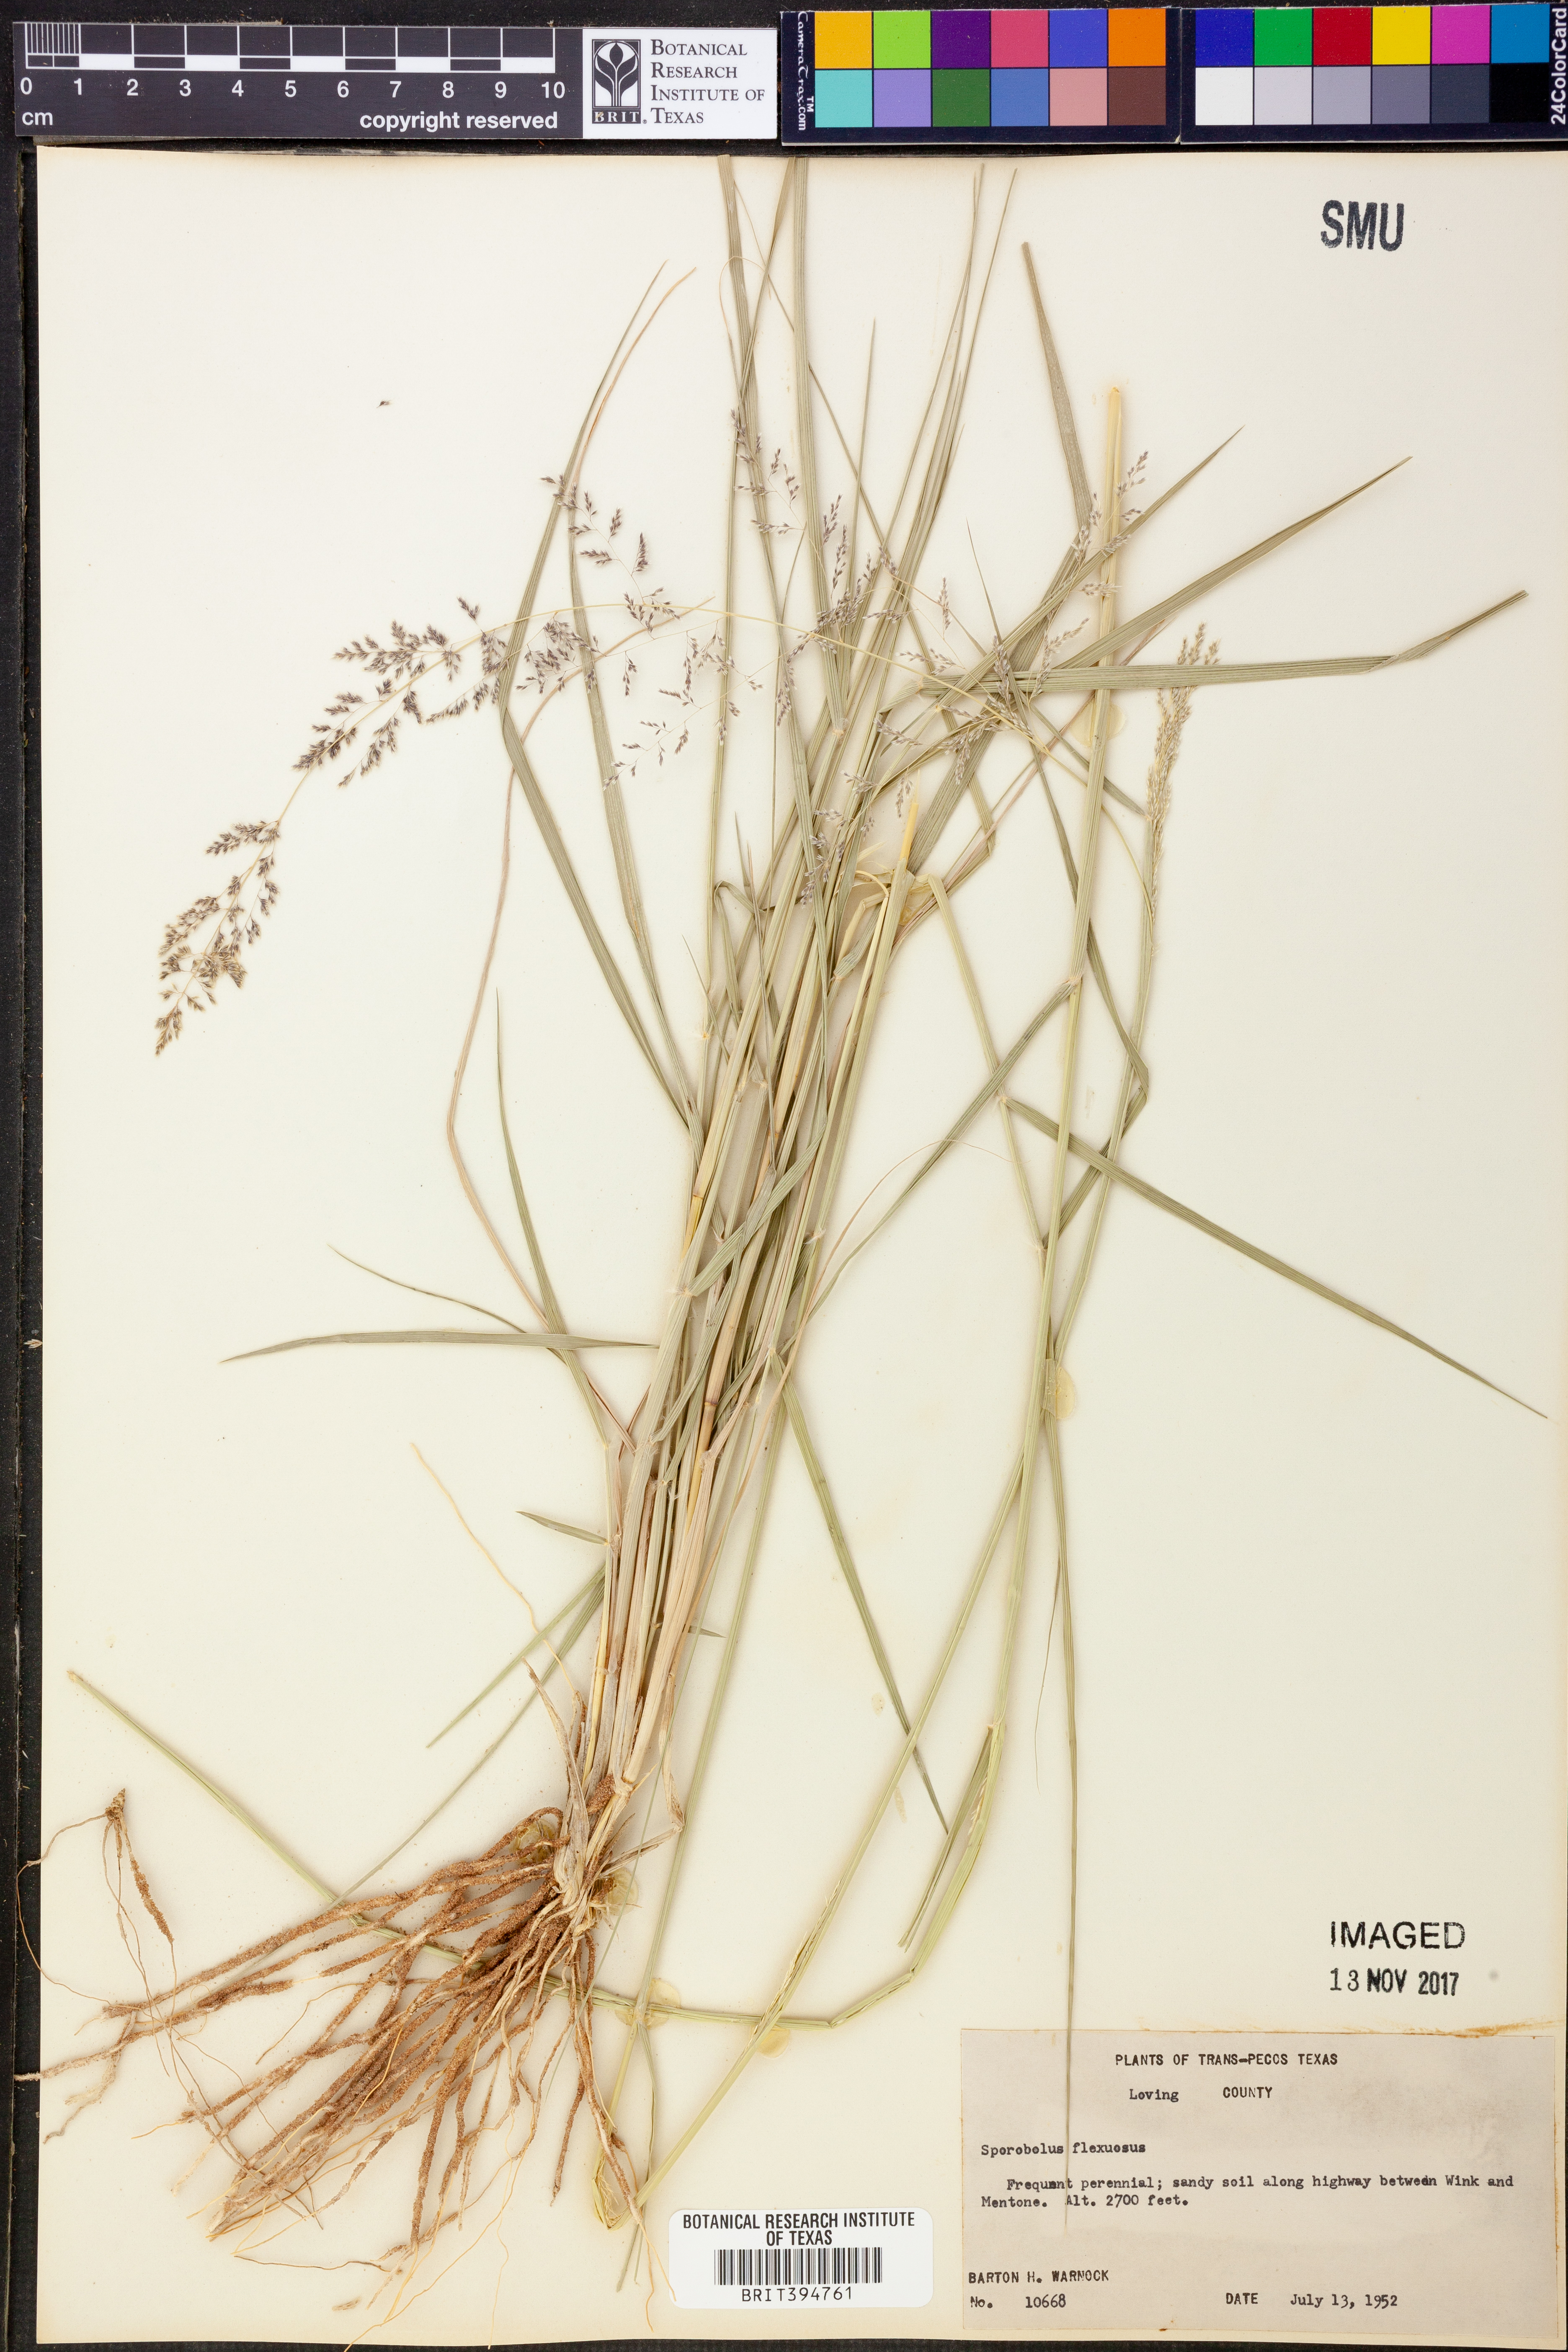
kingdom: Plantae
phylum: Tracheophyta
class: Liliopsida
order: Poales
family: Poaceae
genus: Sporobolus
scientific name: Sporobolus flexuosus
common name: Mesa dropseed
